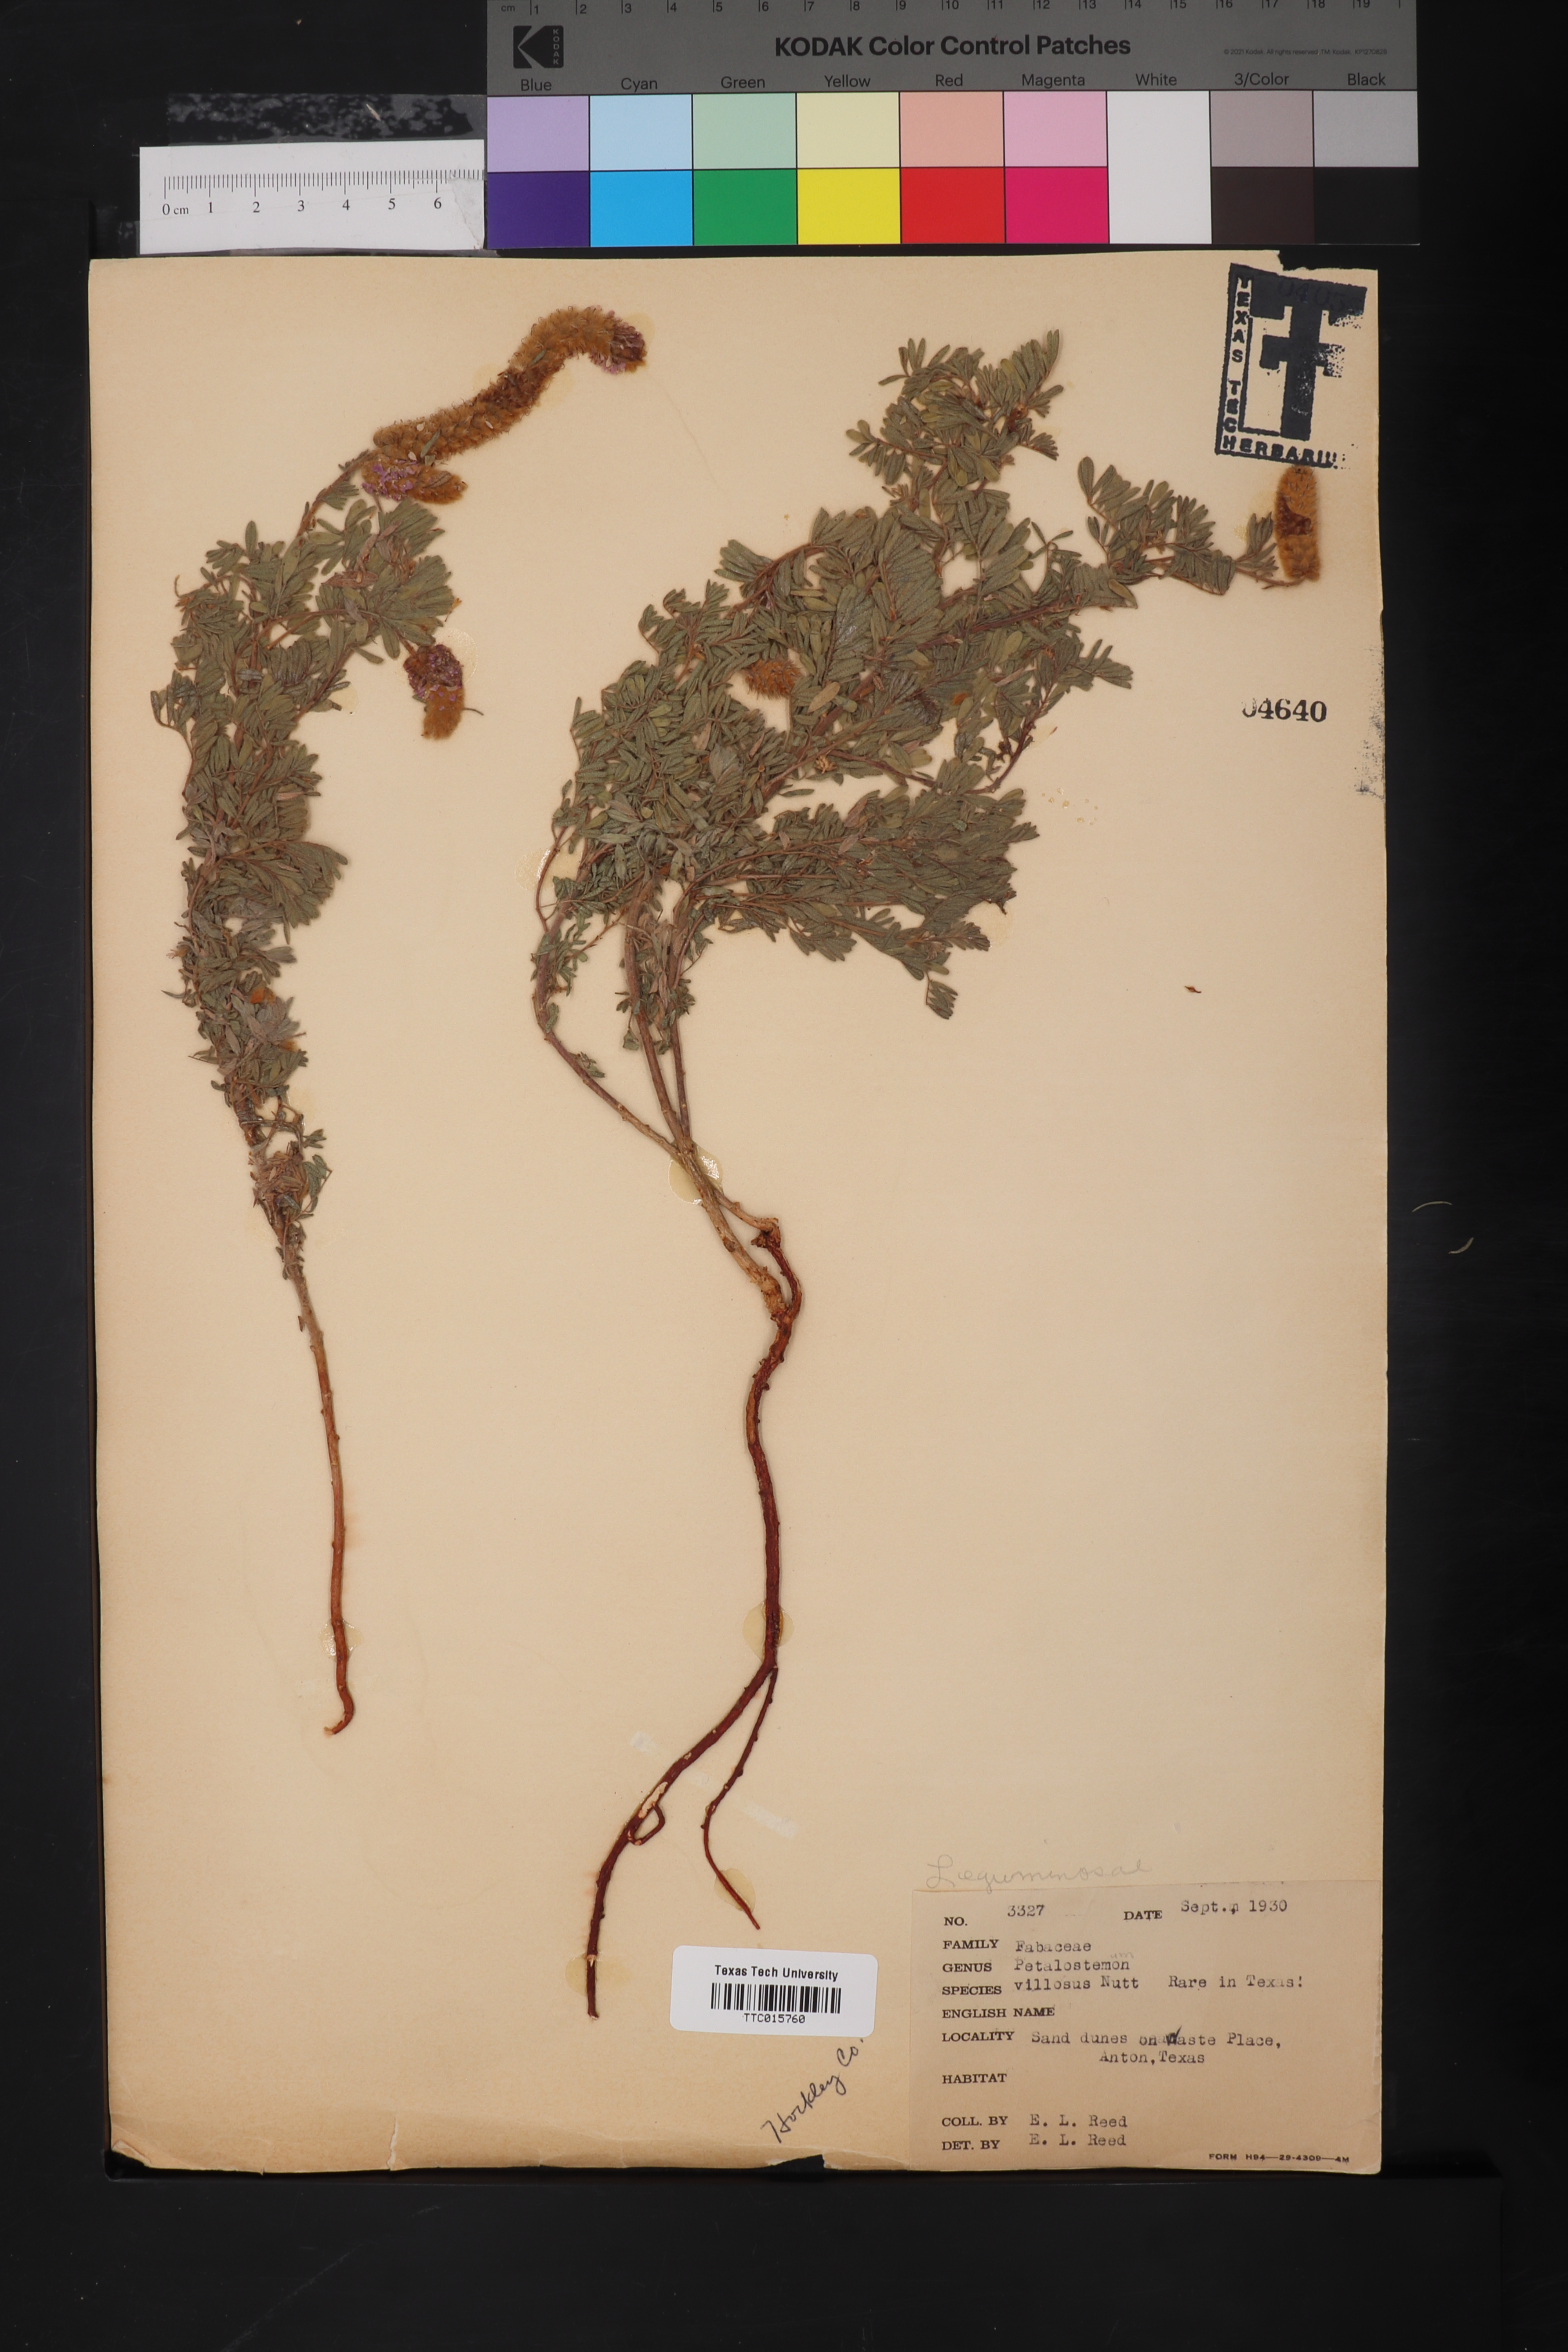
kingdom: Plantae
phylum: Tracheophyta
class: Magnoliopsida
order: Fabales
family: Fabaceae
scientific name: Fabaceae
